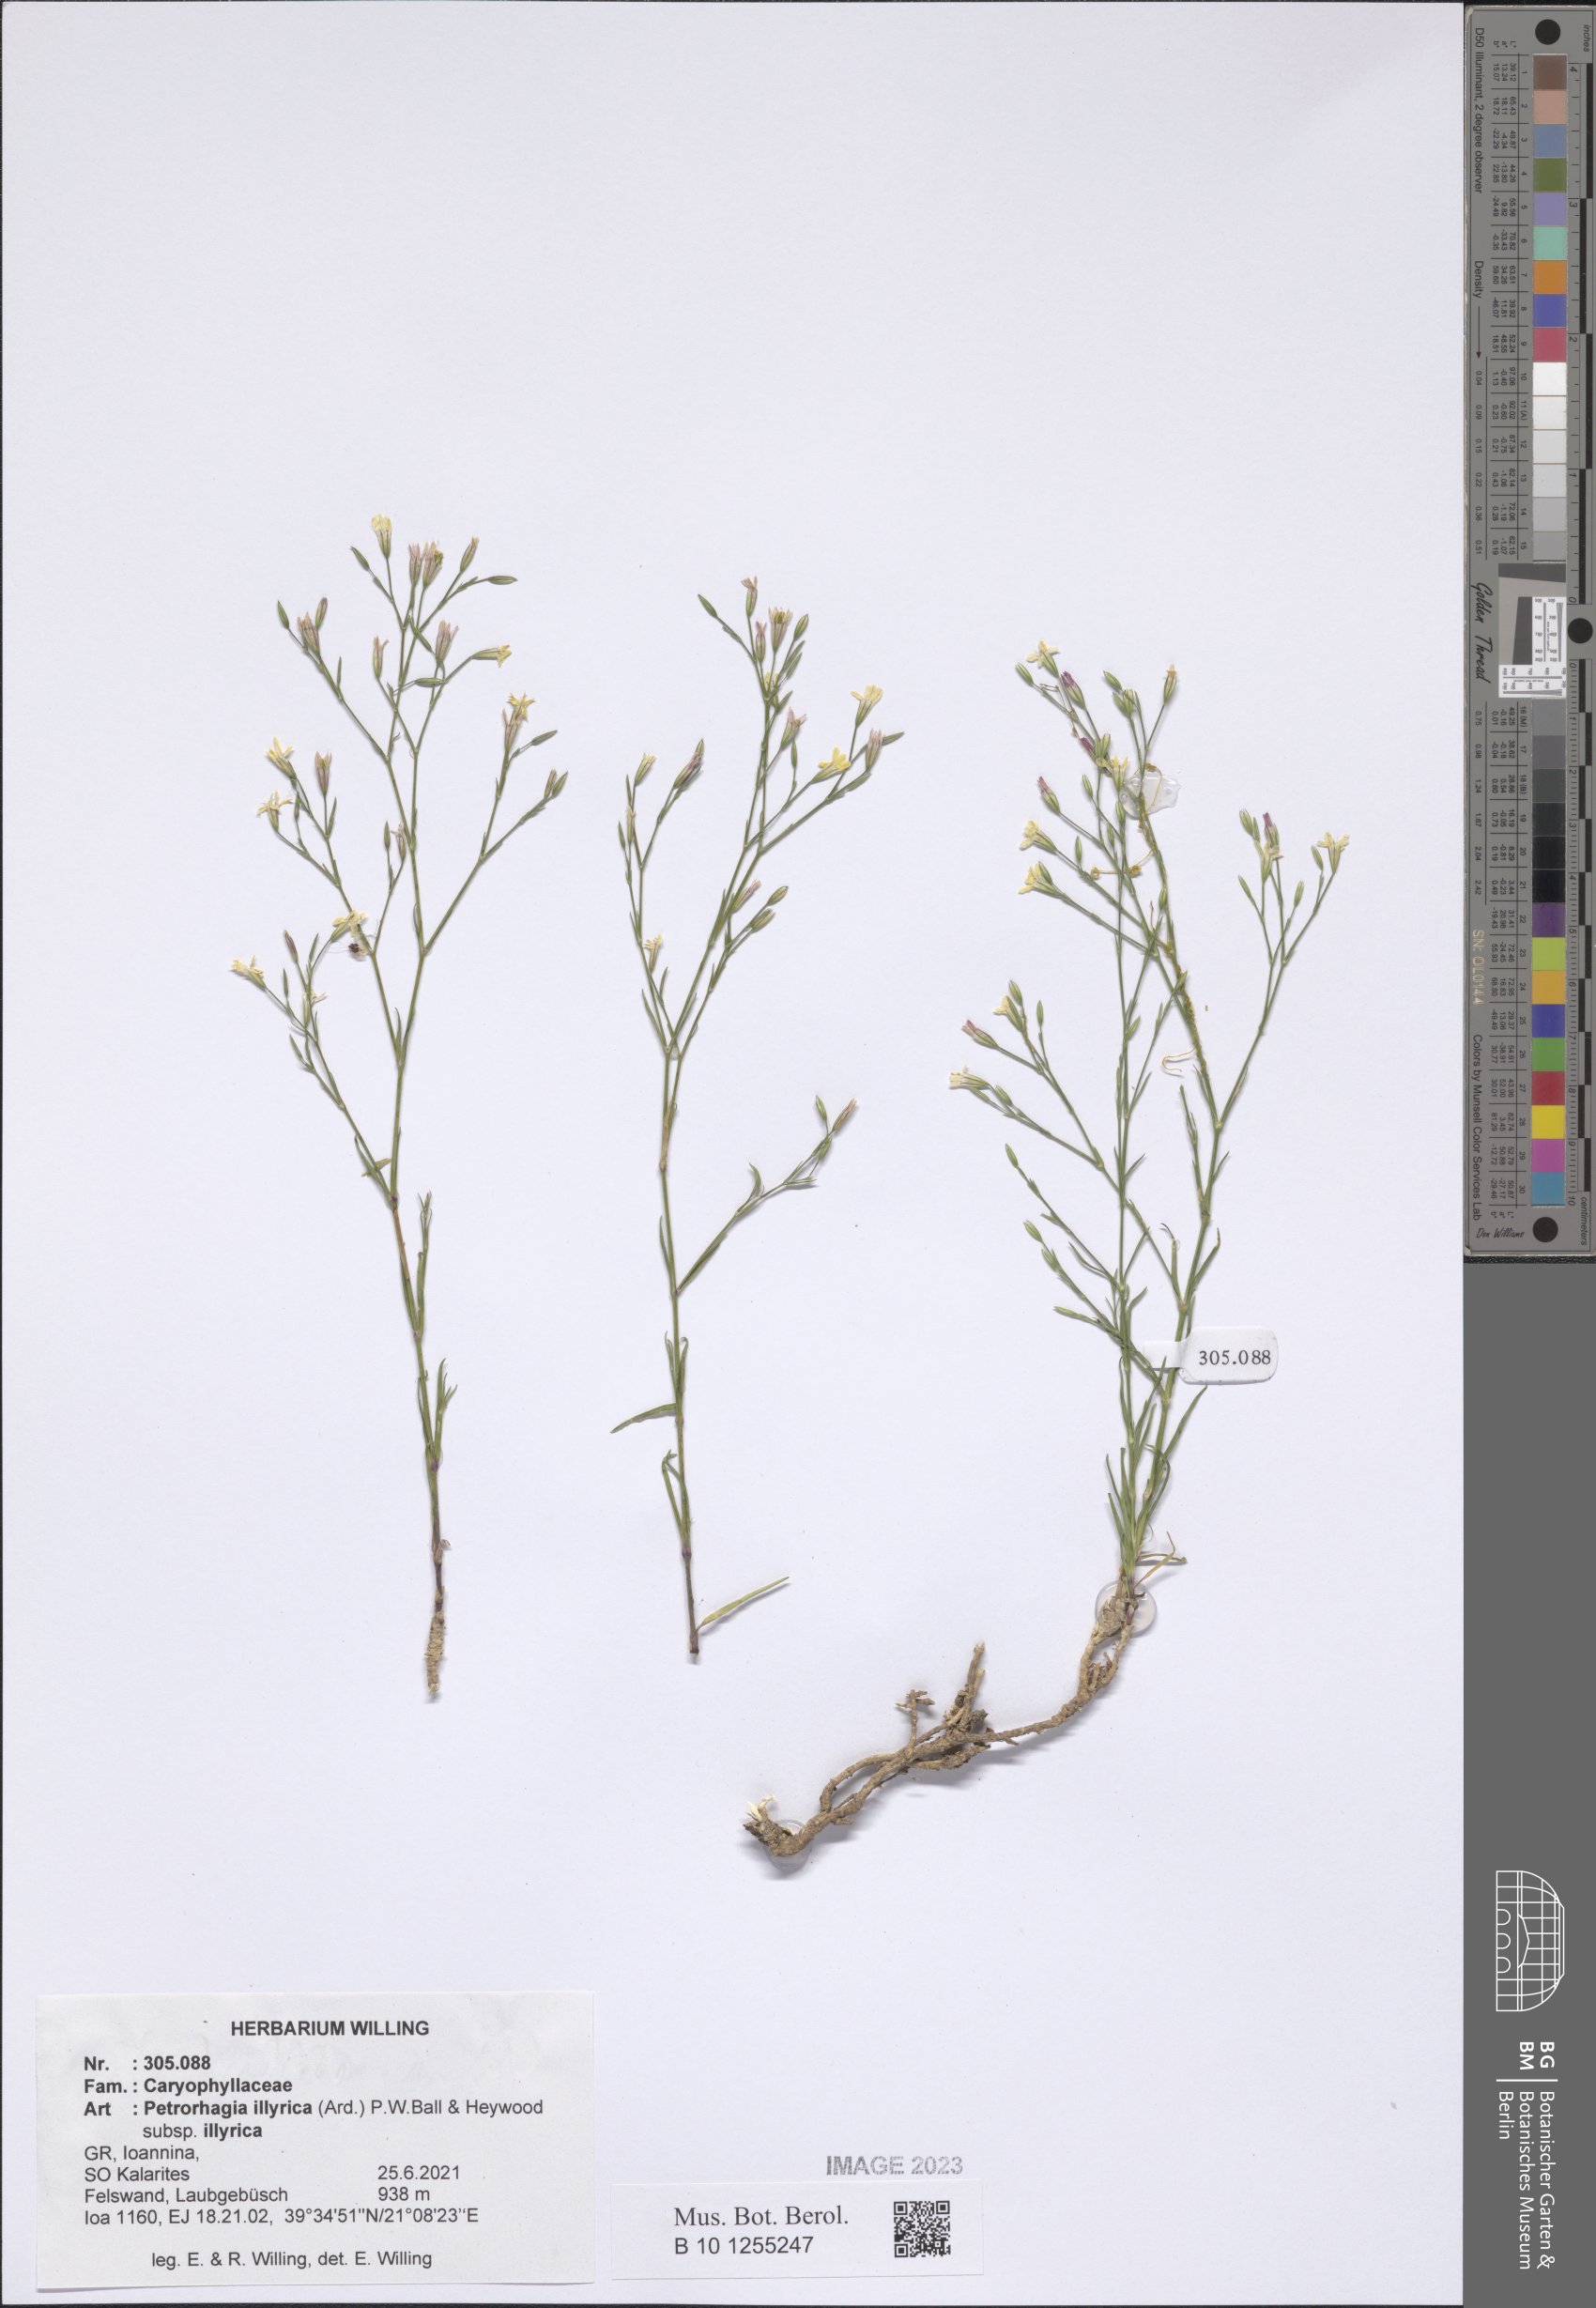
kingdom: Plantae
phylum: Tracheophyta
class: Magnoliopsida
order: Caryophyllales
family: Caryophyllaceae
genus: Dianthus
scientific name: Dianthus illyricus
